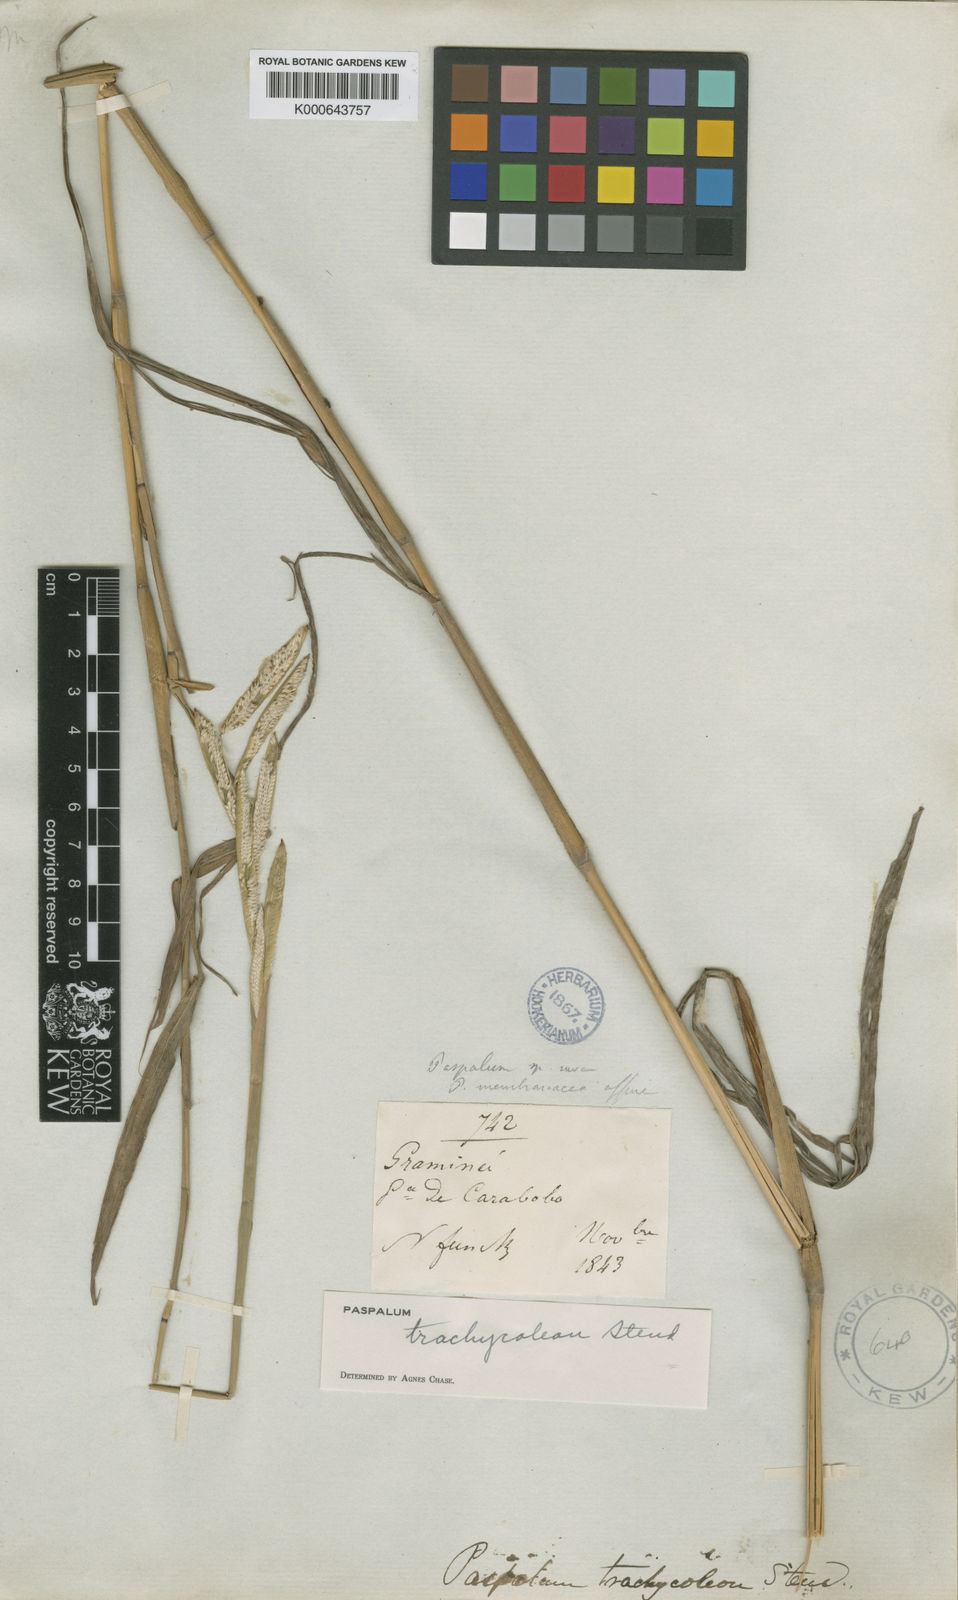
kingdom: Plantae
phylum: Tracheophyta
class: Liliopsida
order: Poales
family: Poaceae
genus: Paspalum
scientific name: Paspalum
